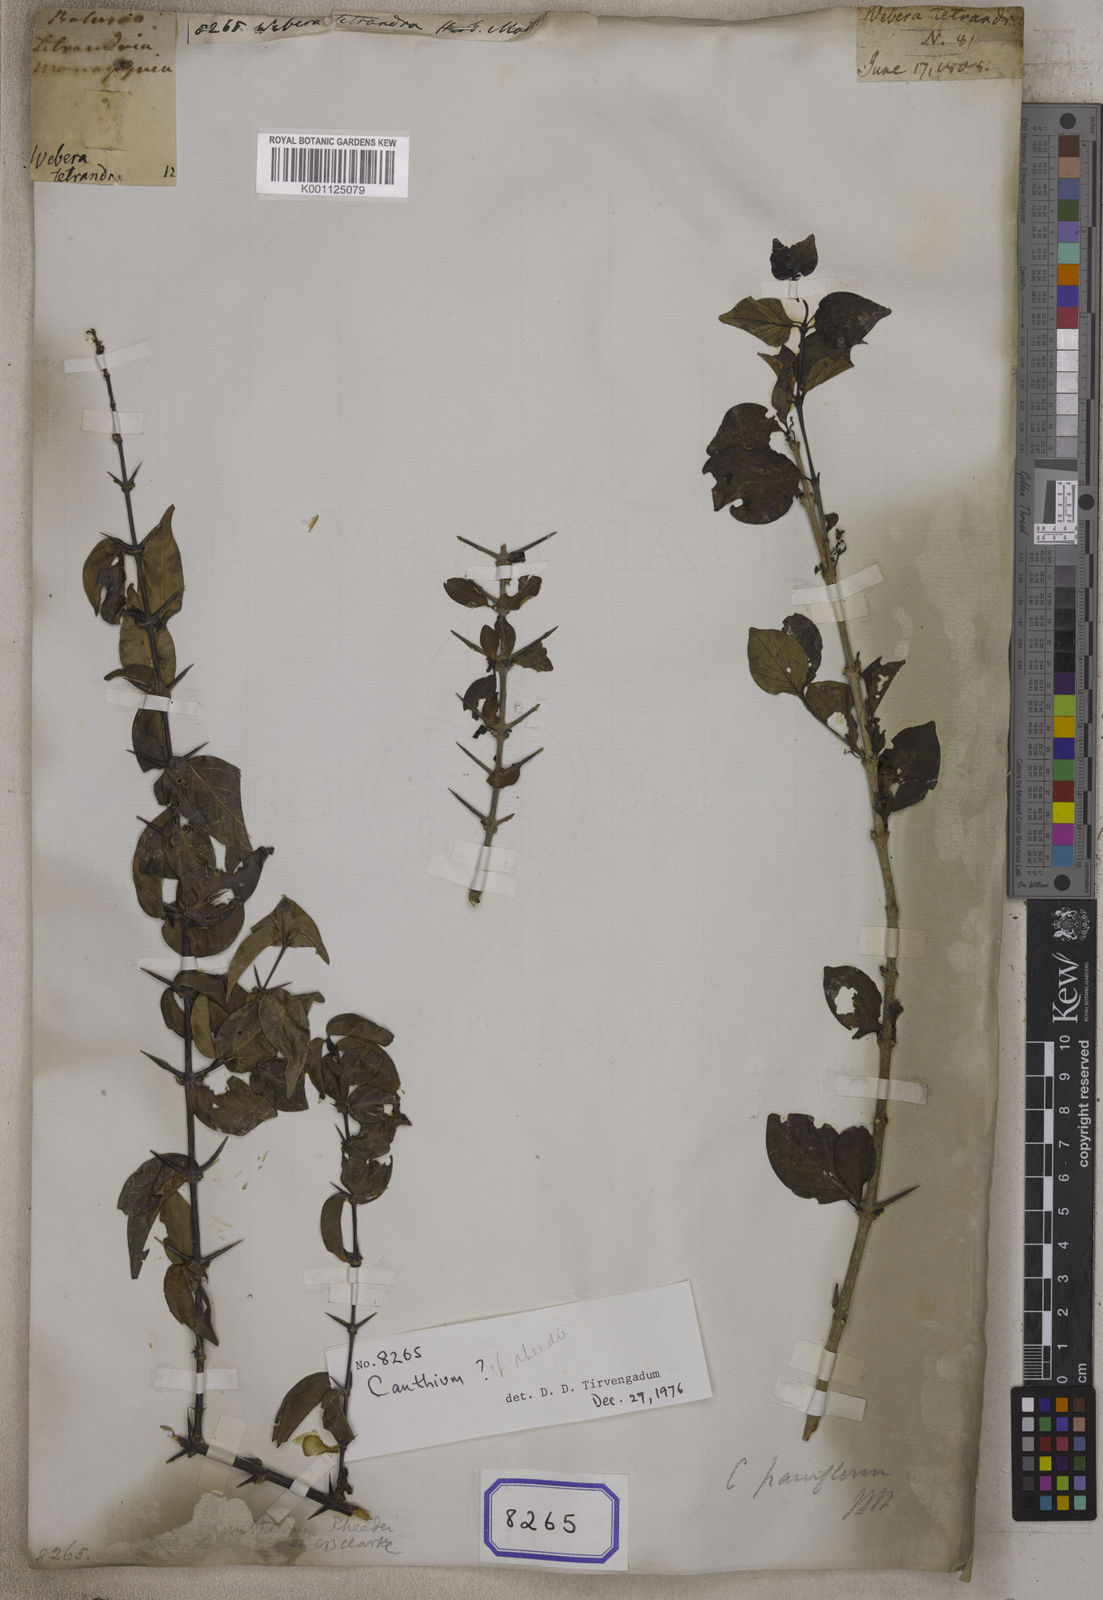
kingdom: Plantae
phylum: Tracheophyta
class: Magnoliopsida
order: Gentianales
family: Rubiaceae
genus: Webera
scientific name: Webera
